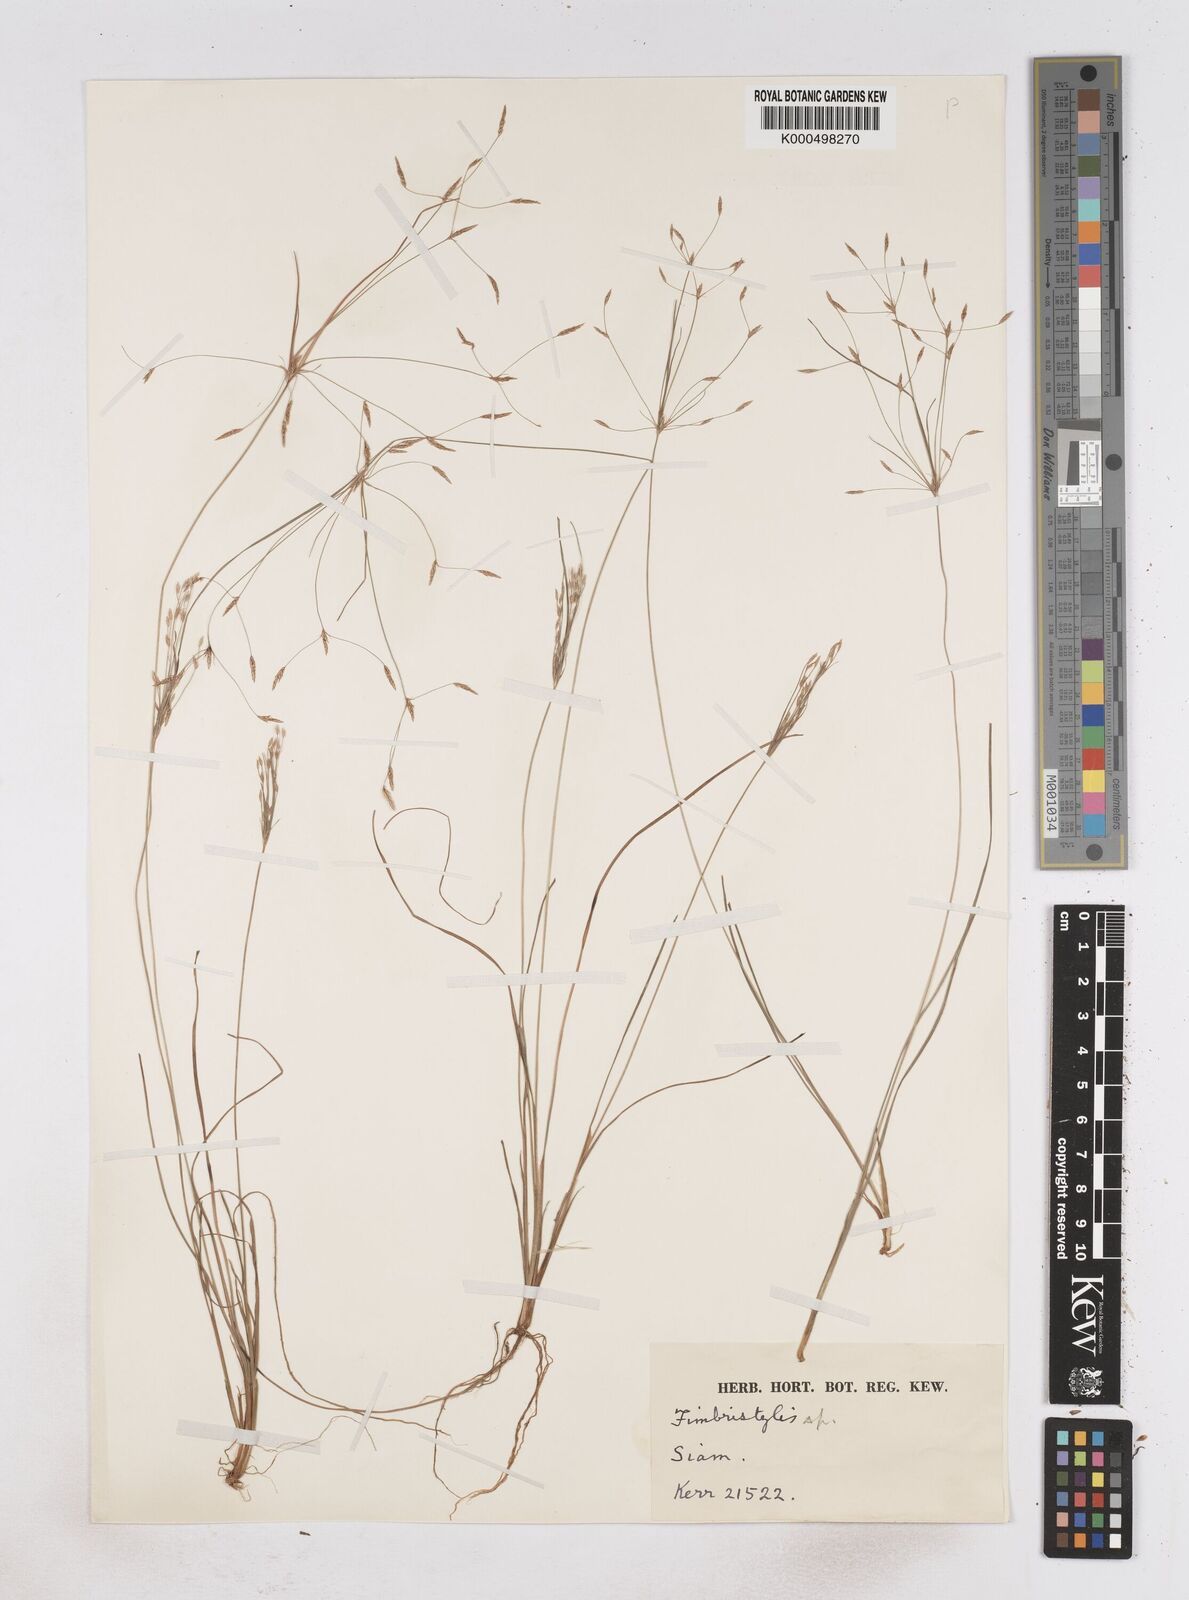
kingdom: Plantae
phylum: Tracheophyta
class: Liliopsida
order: Poales
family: Cyperaceae
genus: Fimbristylis
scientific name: Fimbristylis gracilenta
